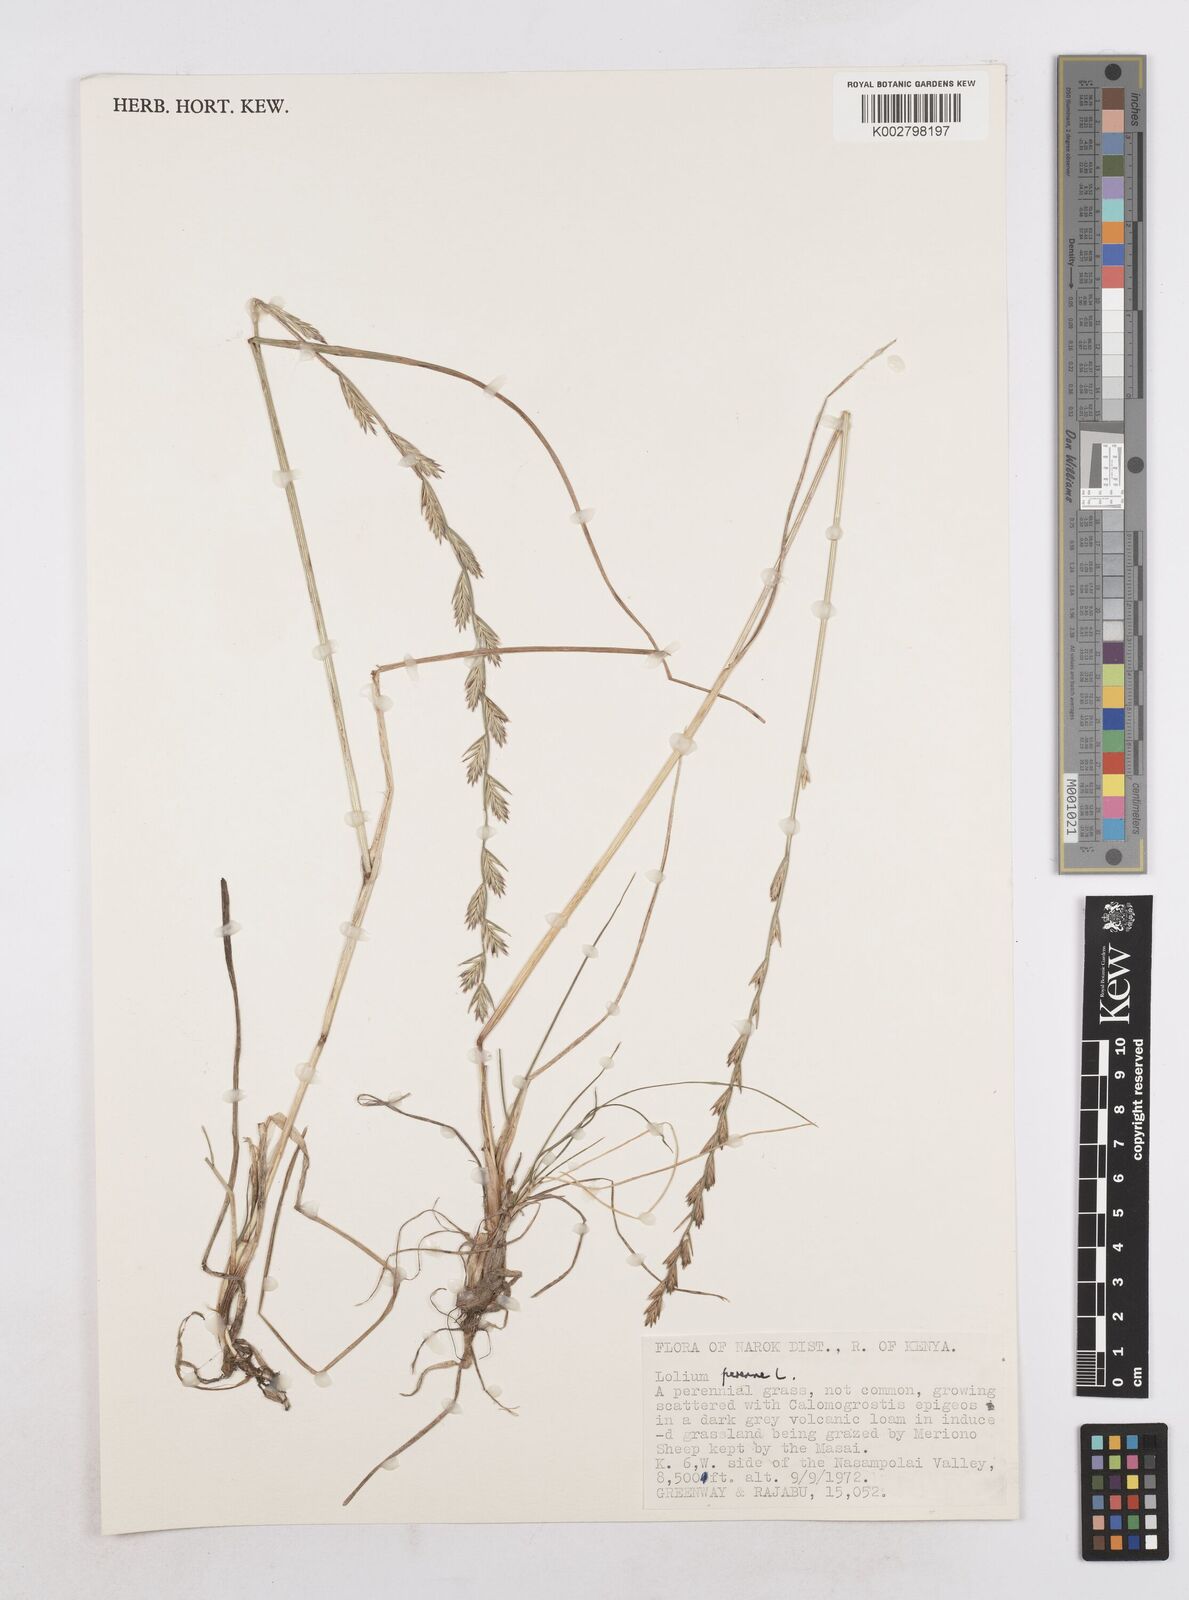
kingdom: Plantae
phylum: Tracheophyta
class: Liliopsida
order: Poales
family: Poaceae
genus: Lolium
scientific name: Lolium perenne
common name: Perennial ryegrass
